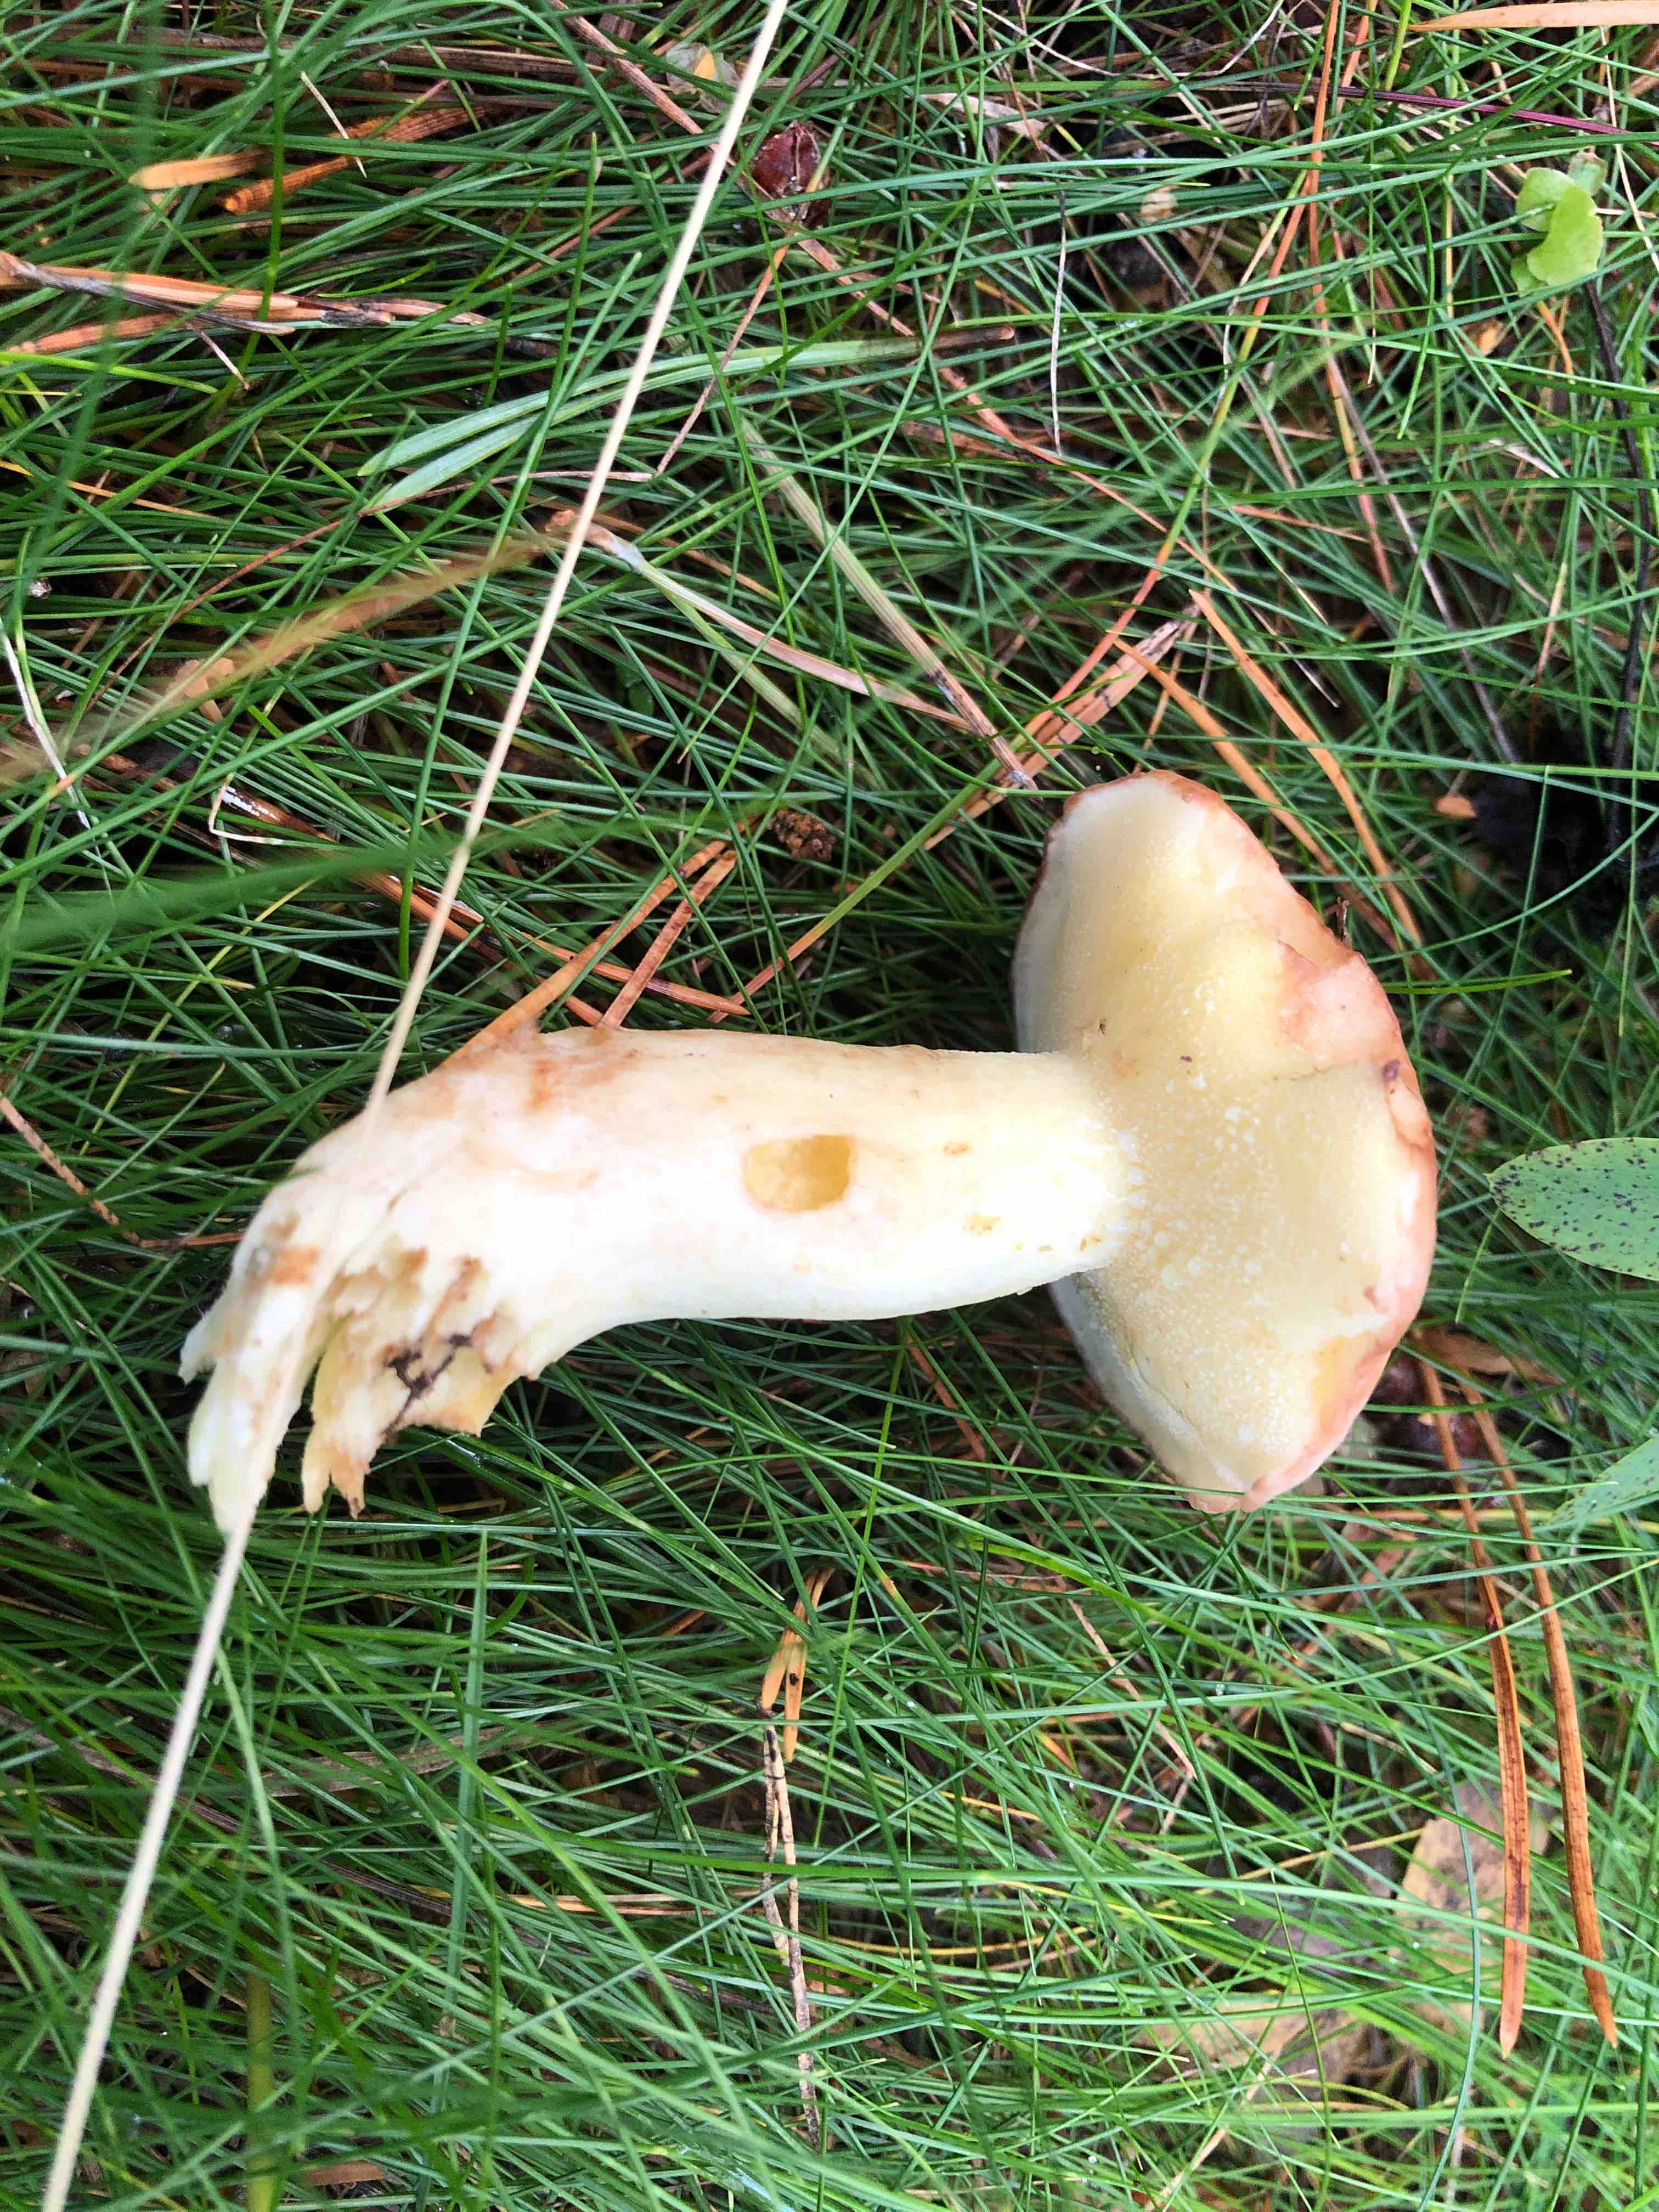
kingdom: Fungi
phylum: Basidiomycota
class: Agaricomycetes
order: Boletales
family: Suillaceae
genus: Suillus
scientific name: Suillus granulatus
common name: kornet slimrørhat
